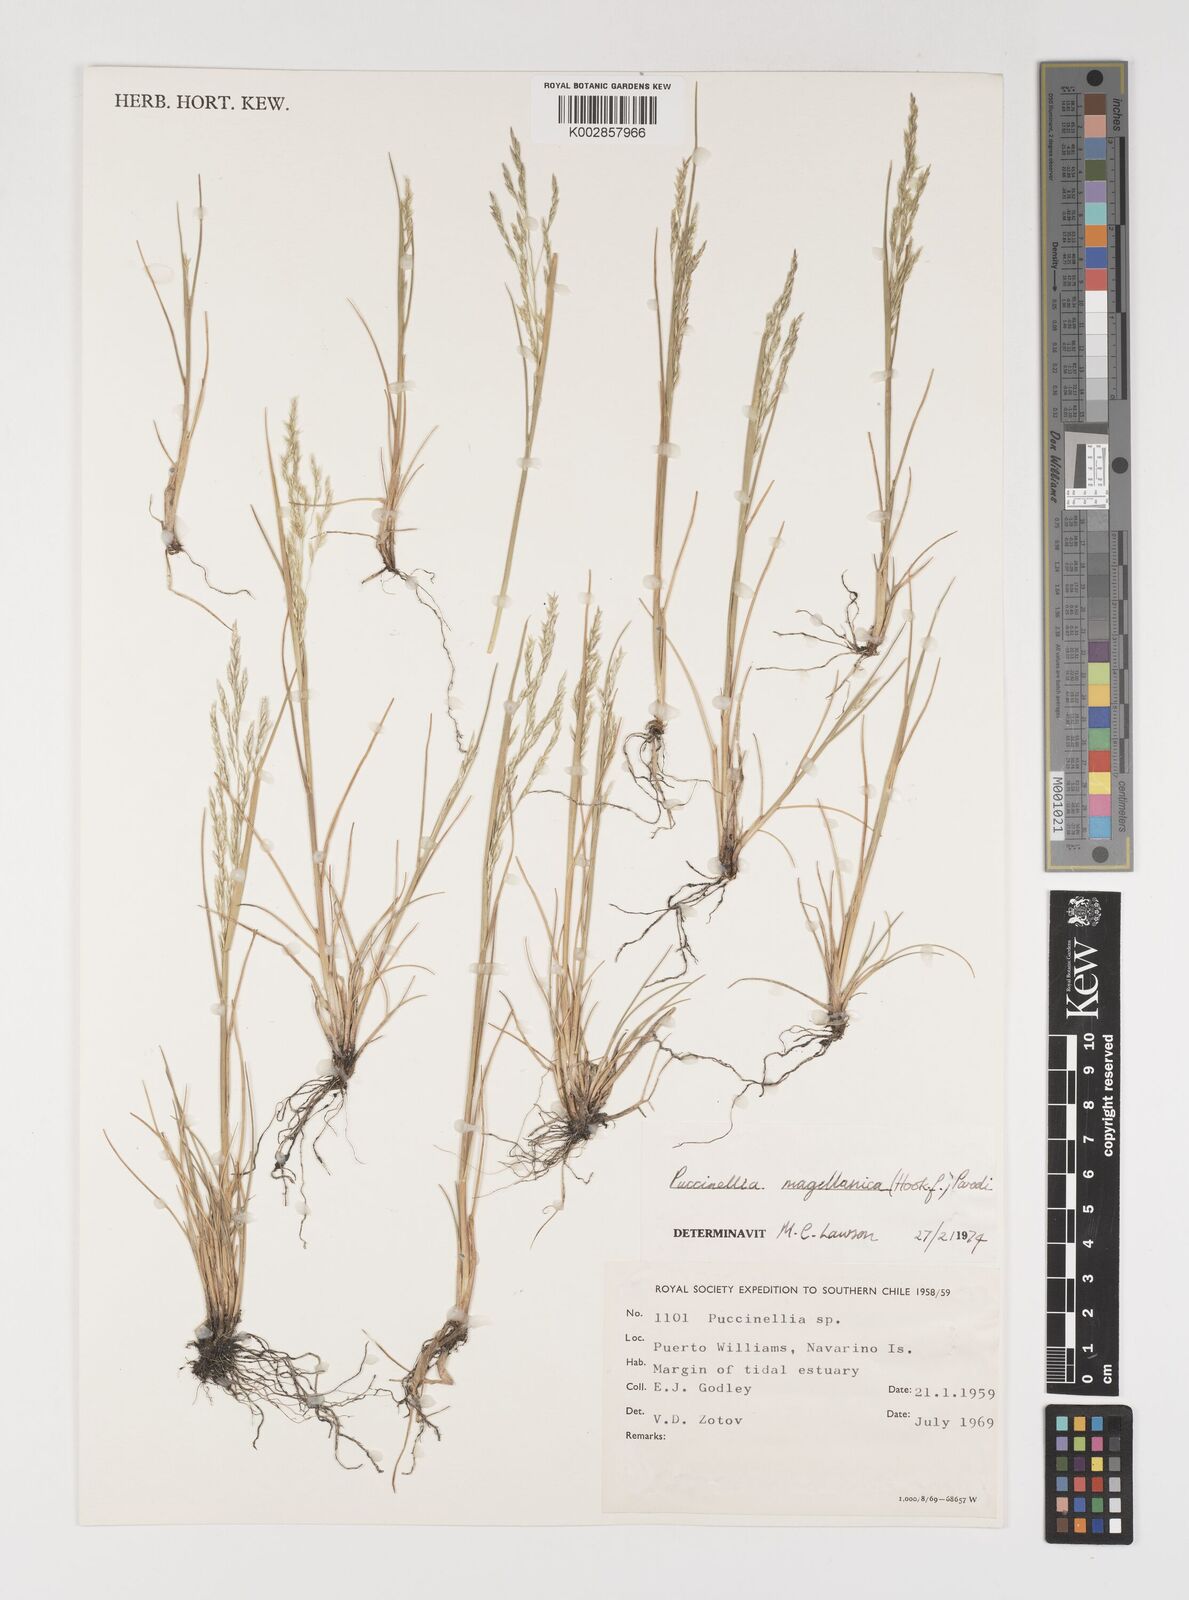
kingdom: Plantae
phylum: Tracheophyta
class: Liliopsida
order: Poales
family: Poaceae
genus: Puccinellia
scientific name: Puccinellia magellanica
